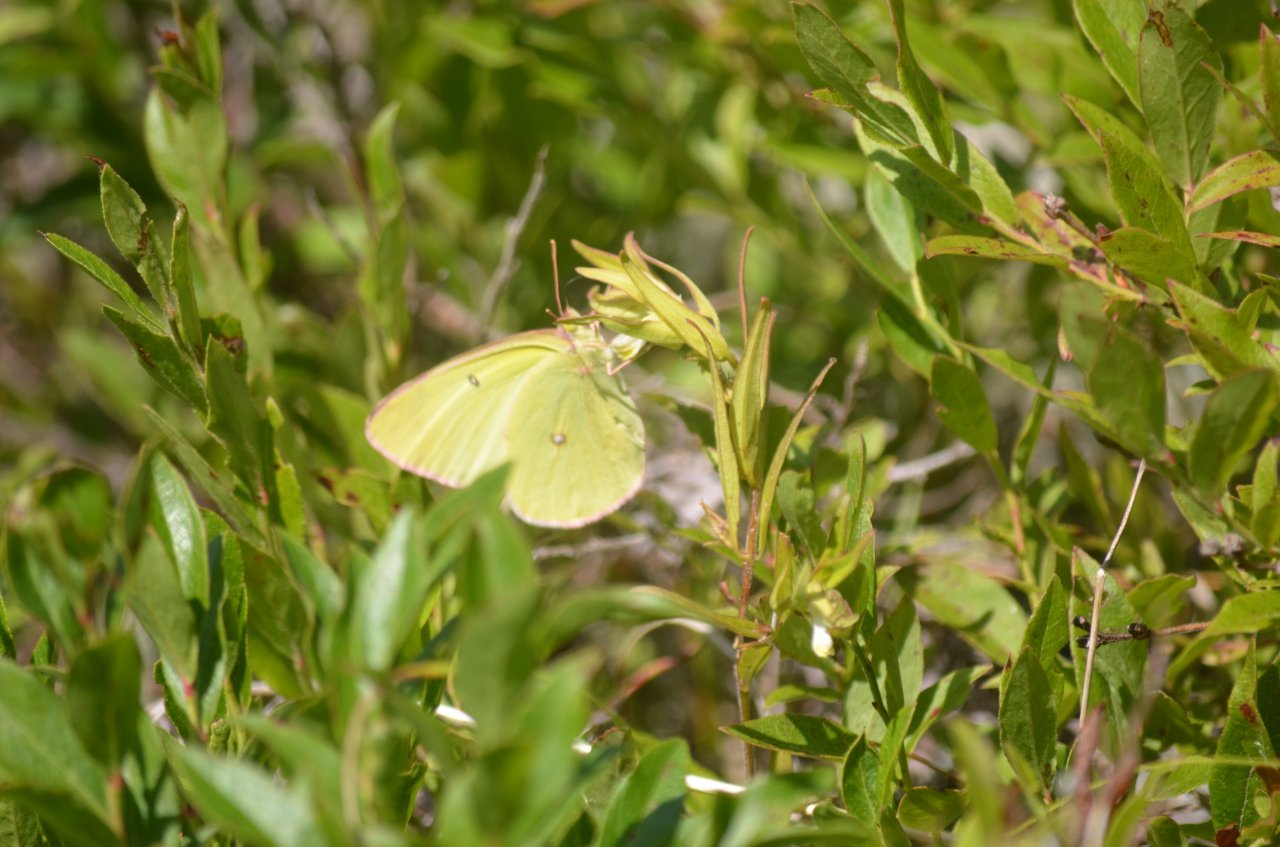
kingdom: Animalia
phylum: Arthropoda
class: Insecta
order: Lepidoptera
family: Pieridae
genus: Colias
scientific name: Colias interior
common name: Pink-edged Sulphur
